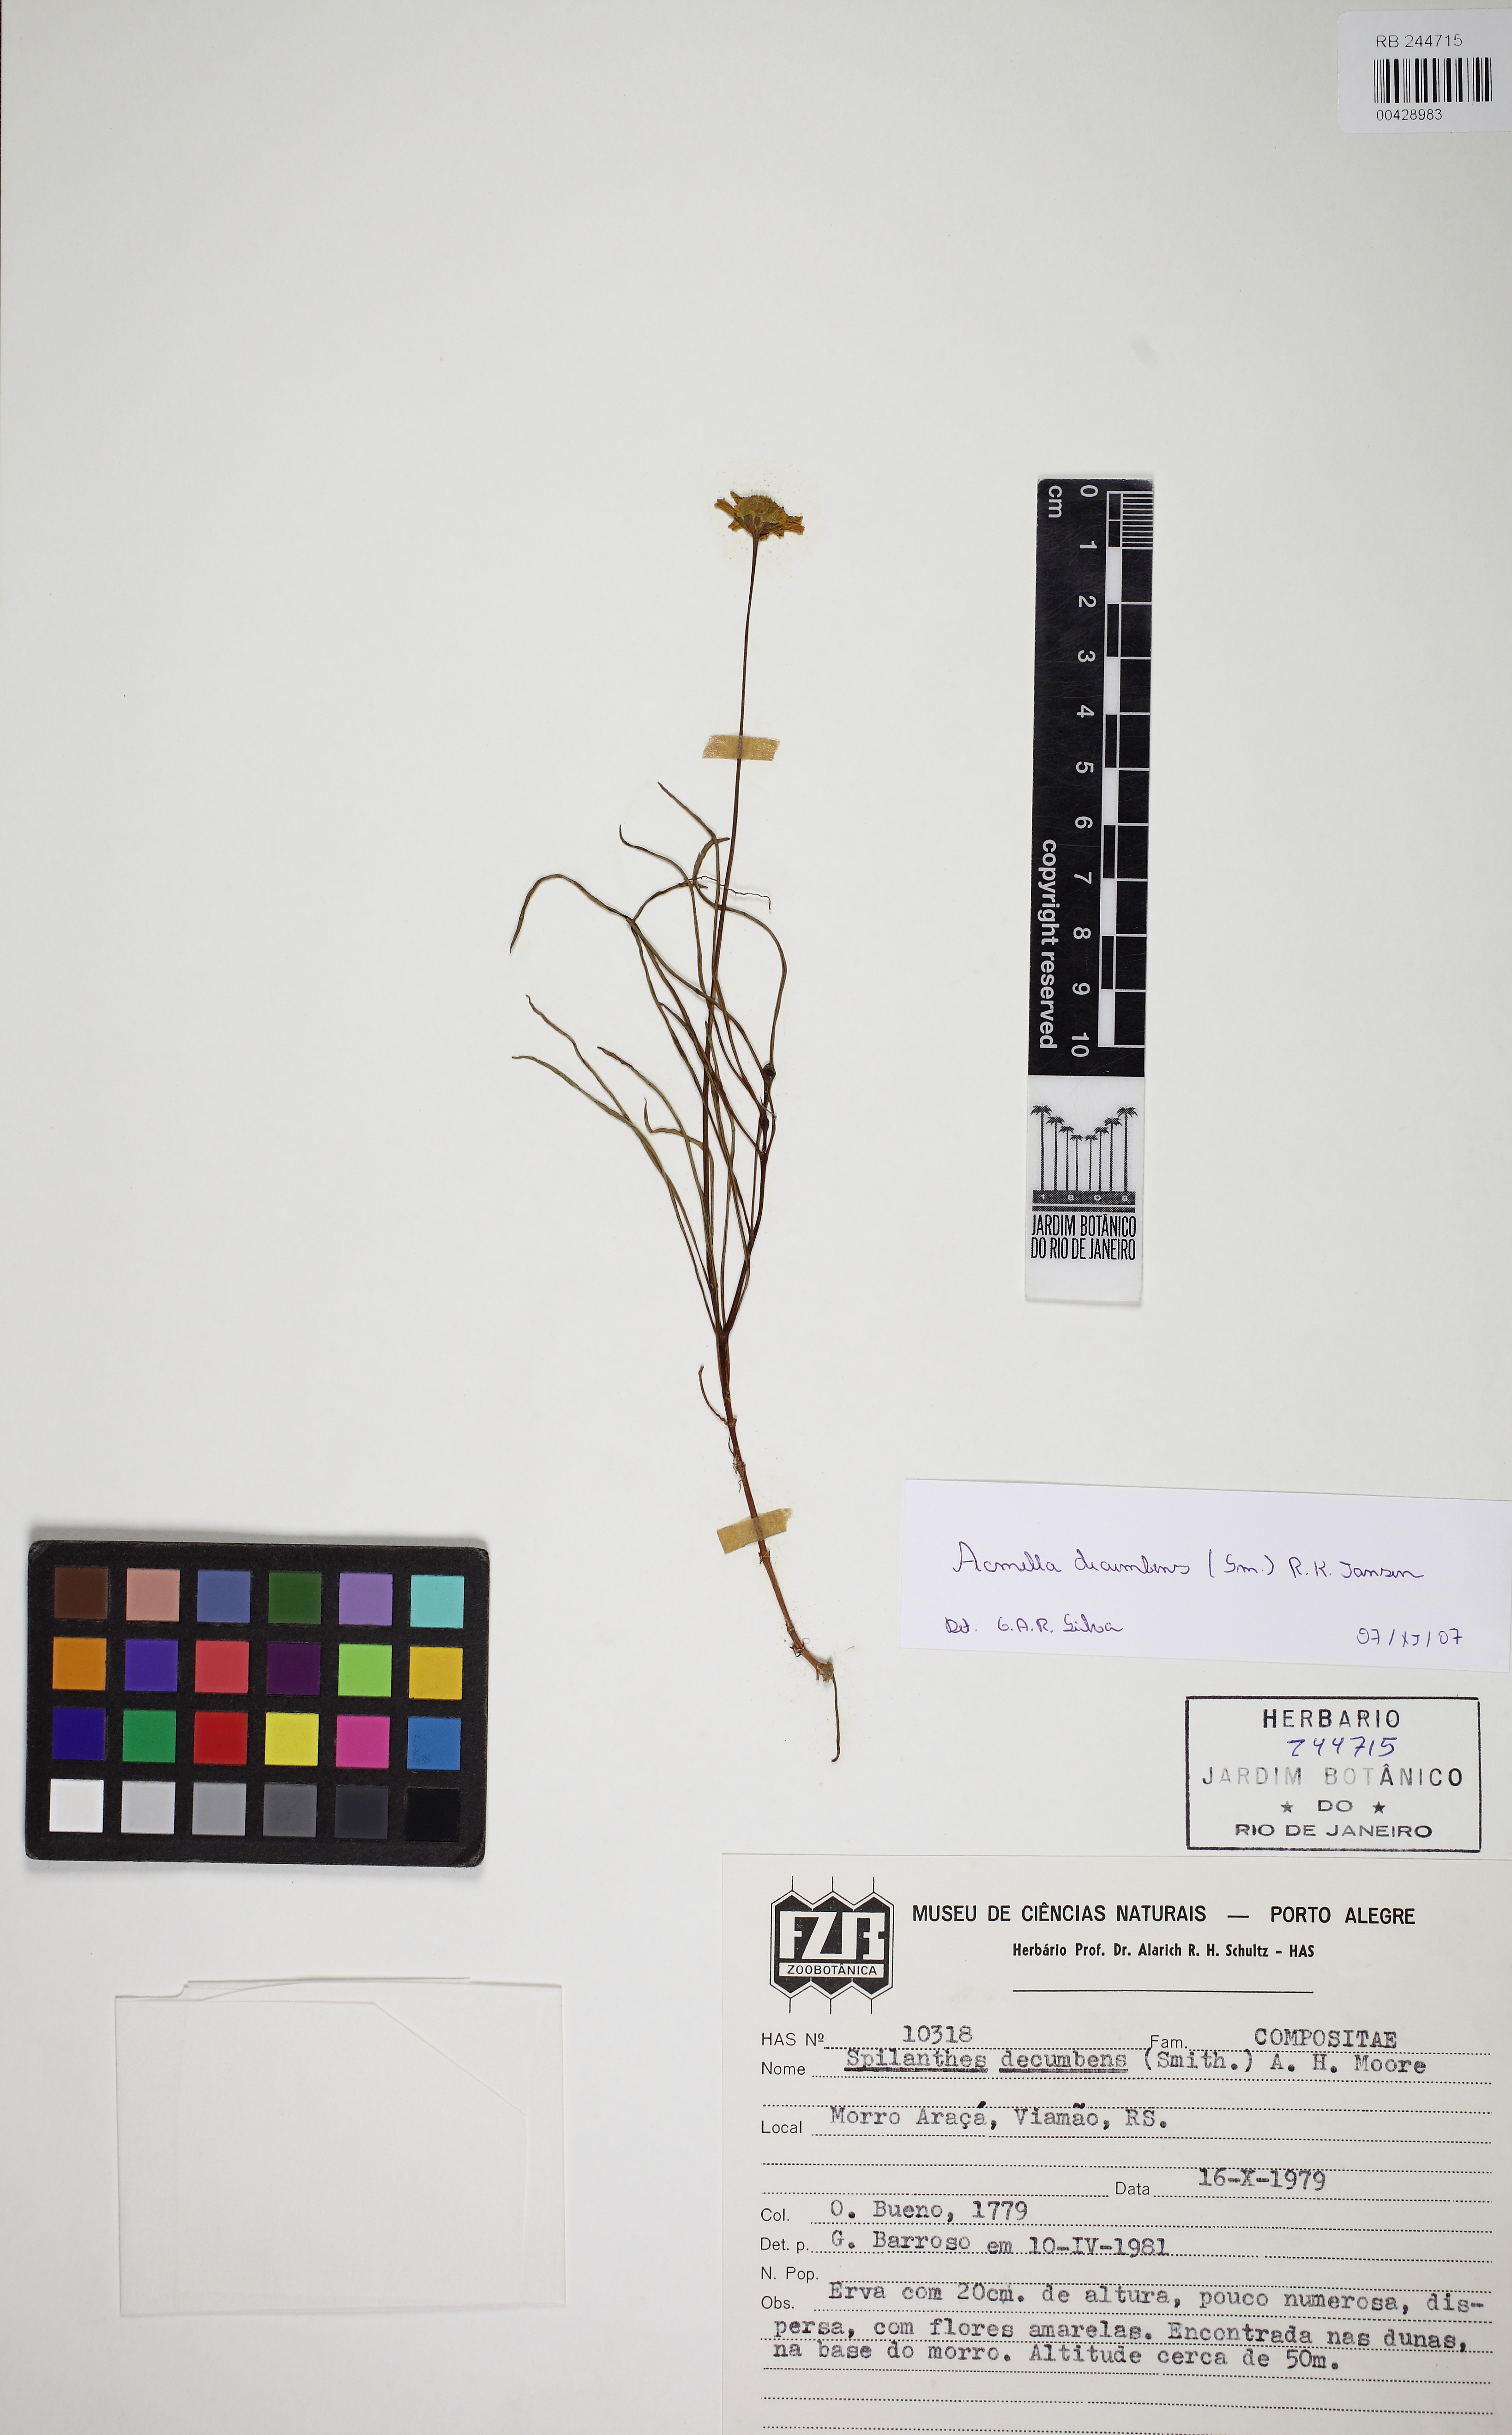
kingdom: Plantae
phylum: Tracheophyta
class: Magnoliopsida
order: Asterales
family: Asteraceae
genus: Acmella
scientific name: Acmella decumbens
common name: Creeping spotflower
